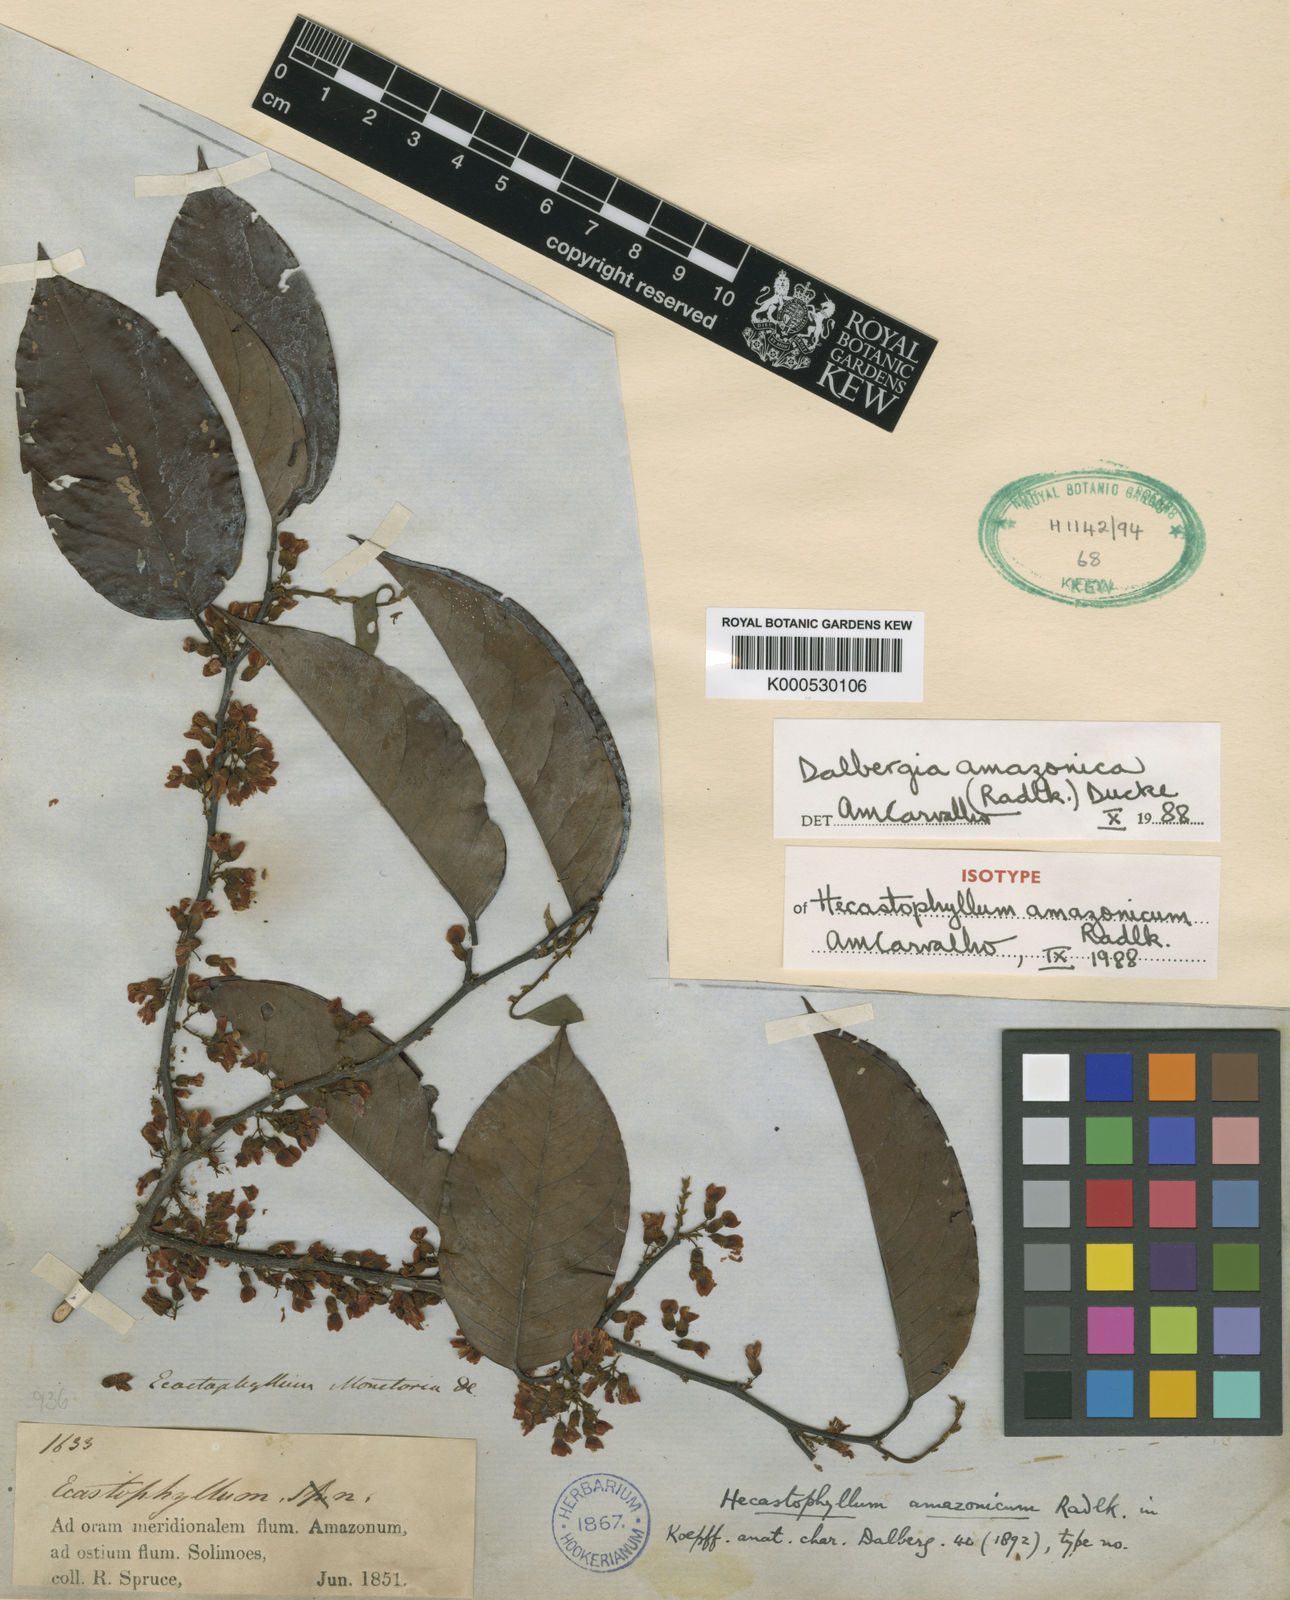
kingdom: Plantae
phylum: Tracheophyta
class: Magnoliopsida
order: Fabales
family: Fabaceae
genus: Dalbergia
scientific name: Dalbergia
